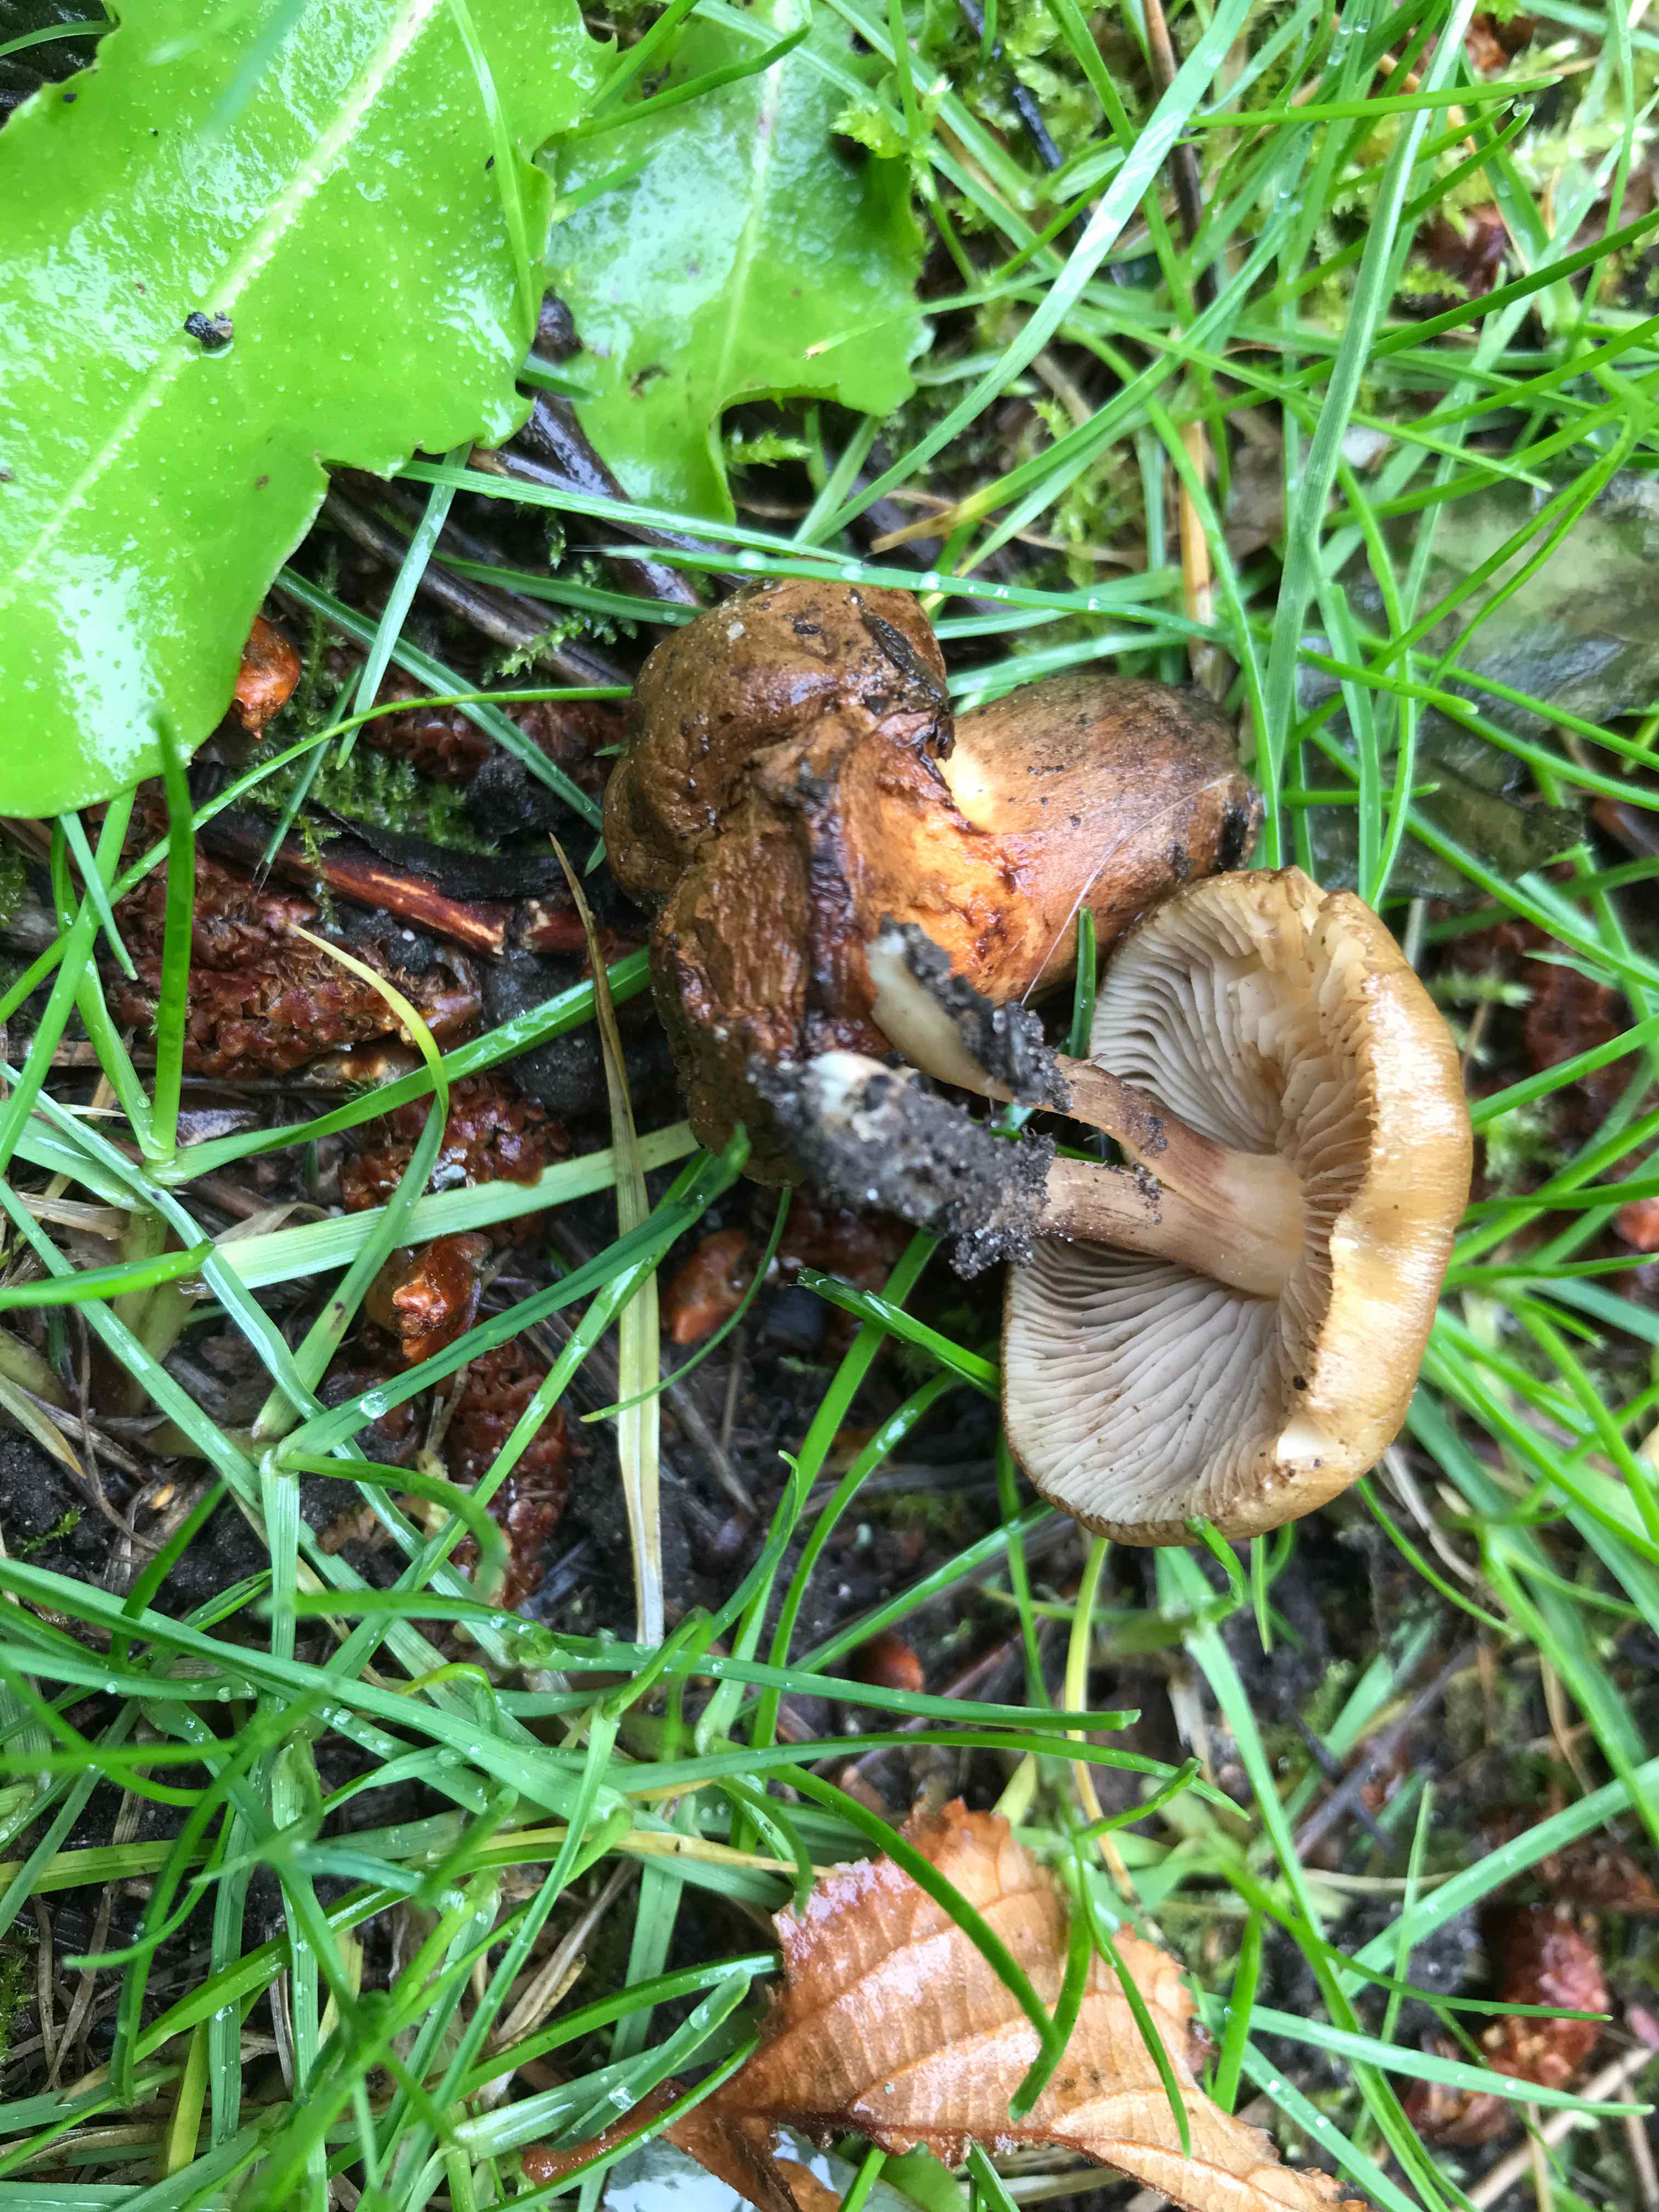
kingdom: Fungi
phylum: Basidiomycota
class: Agaricomycetes
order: Agaricales
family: Inocybaceae
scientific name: Inocybaceae
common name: trævlhatfamilien
